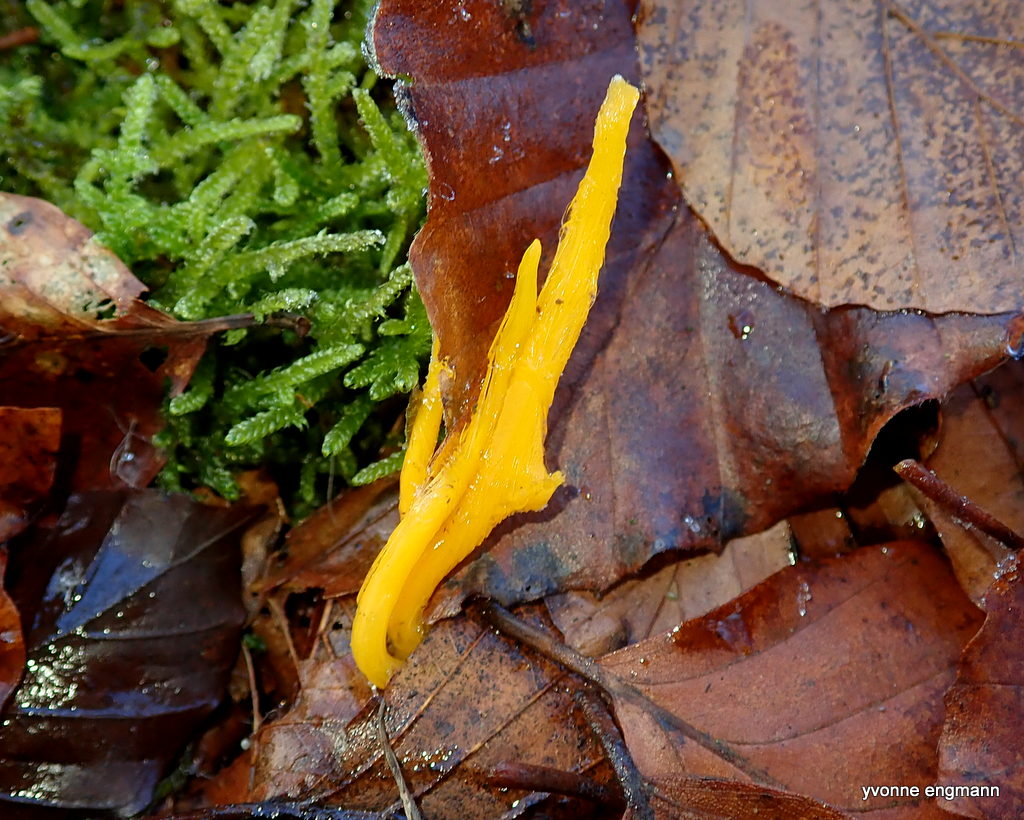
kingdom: Fungi
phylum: Basidiomycota
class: Dacrymycetes
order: Dacrymycetales
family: Dacrymycetaceae
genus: Calocera
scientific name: Calocera viscosa
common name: almindelig guldgaffel
